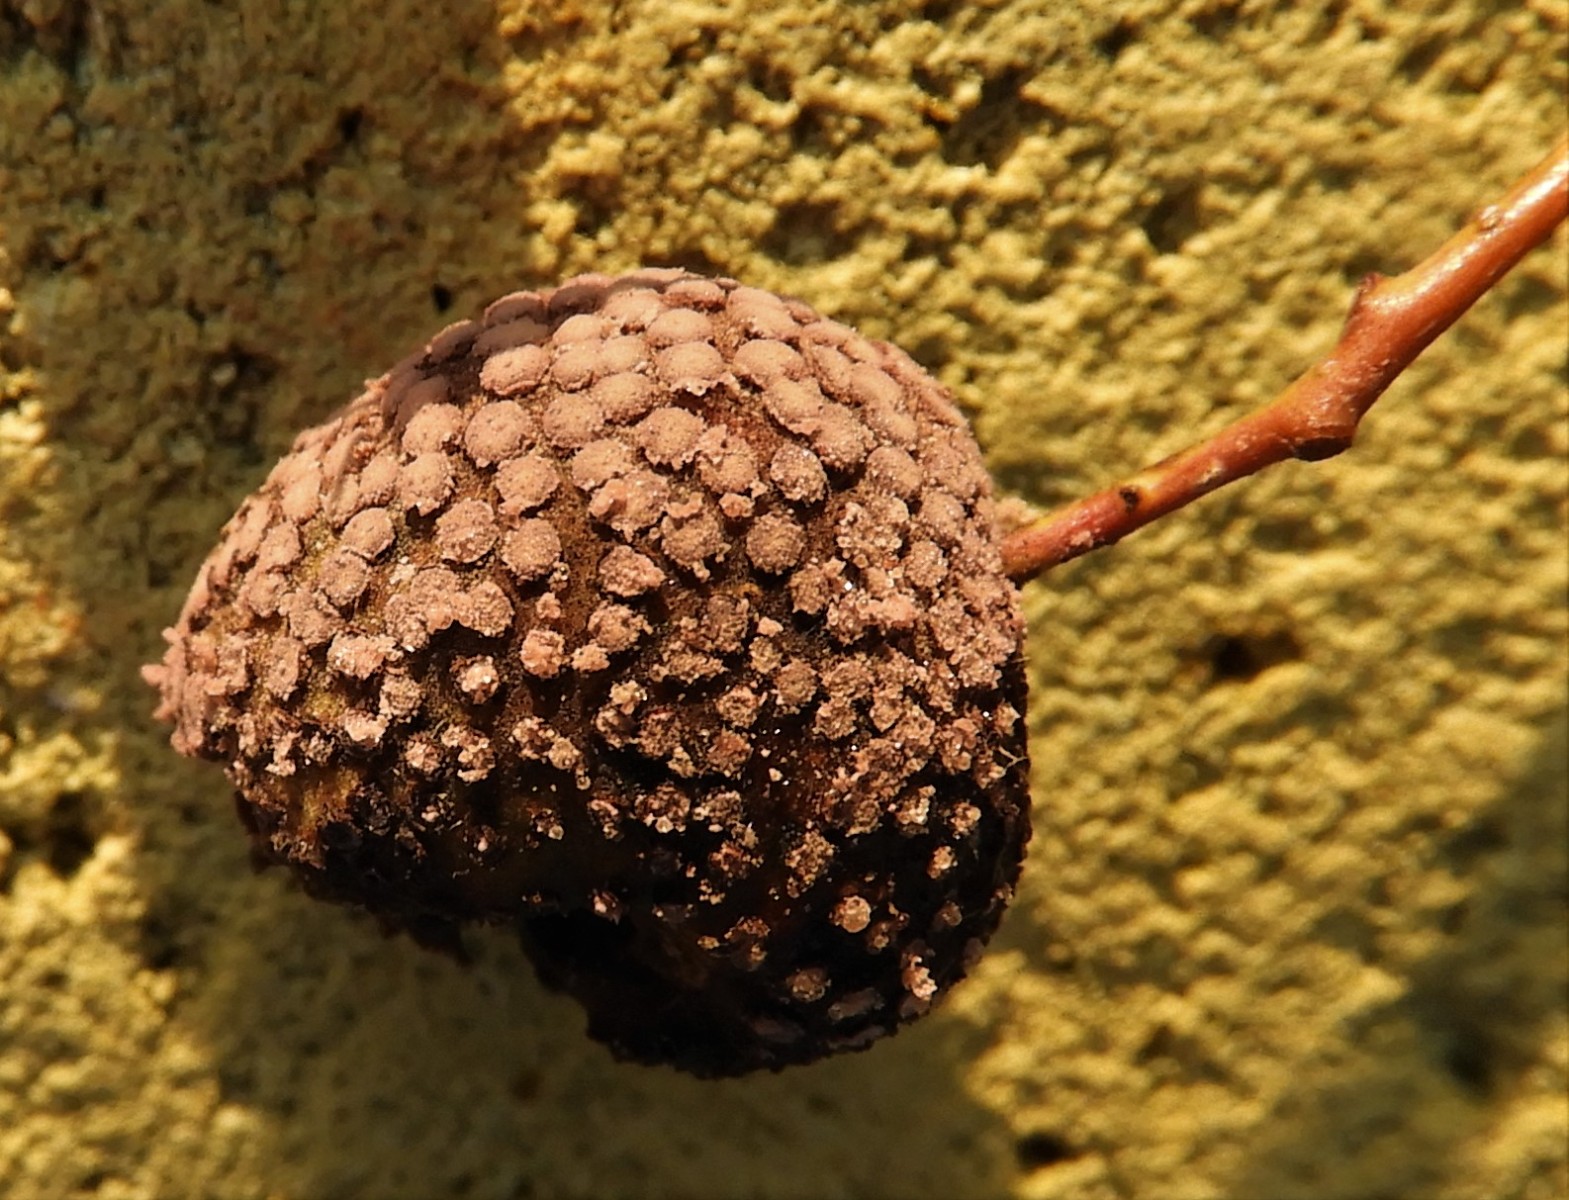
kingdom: Fungi
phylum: Basidiomycota
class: Pucciniomycetes
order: Helicobasidiales
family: Helicobasidiaceae
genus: Helicobasidium
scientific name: Helicobasidium purpureum
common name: purpur-bispebævrehinde
